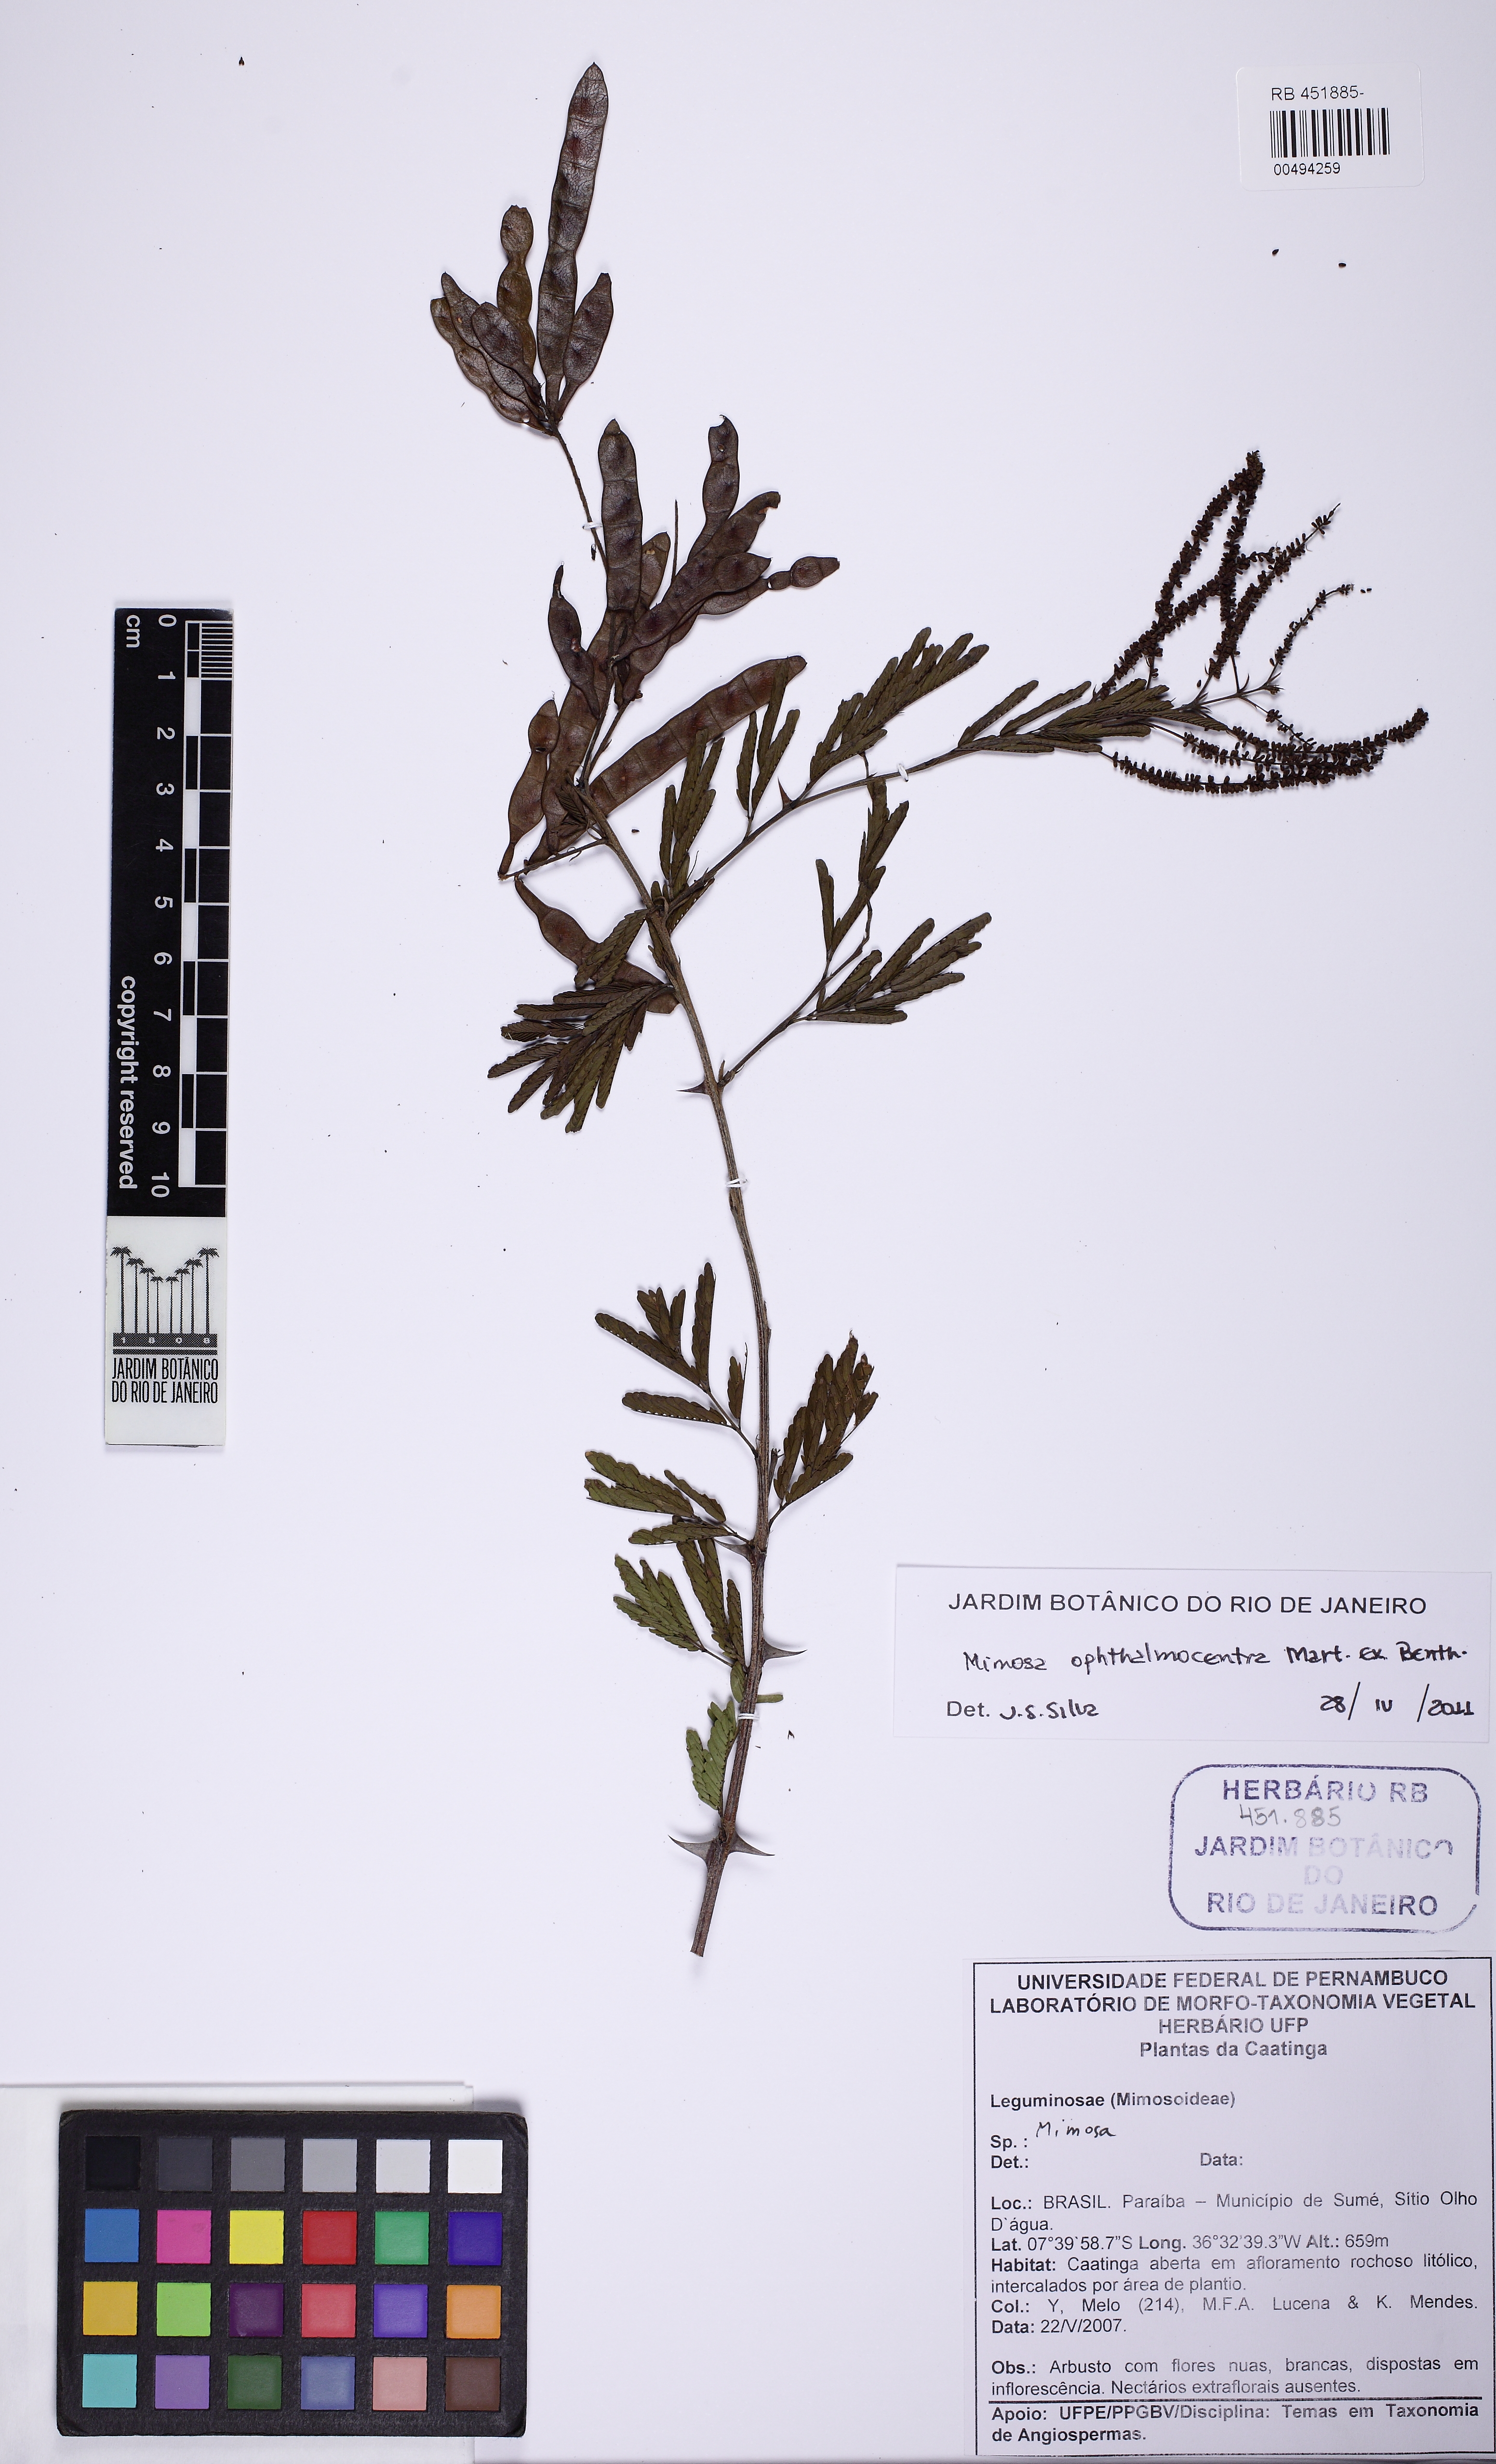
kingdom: Plantae
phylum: Tracheophyta
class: Magnoliopsida
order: Fabales
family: Fabaceae
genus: Mimosa
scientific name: Mimosa ophthalmocentra
